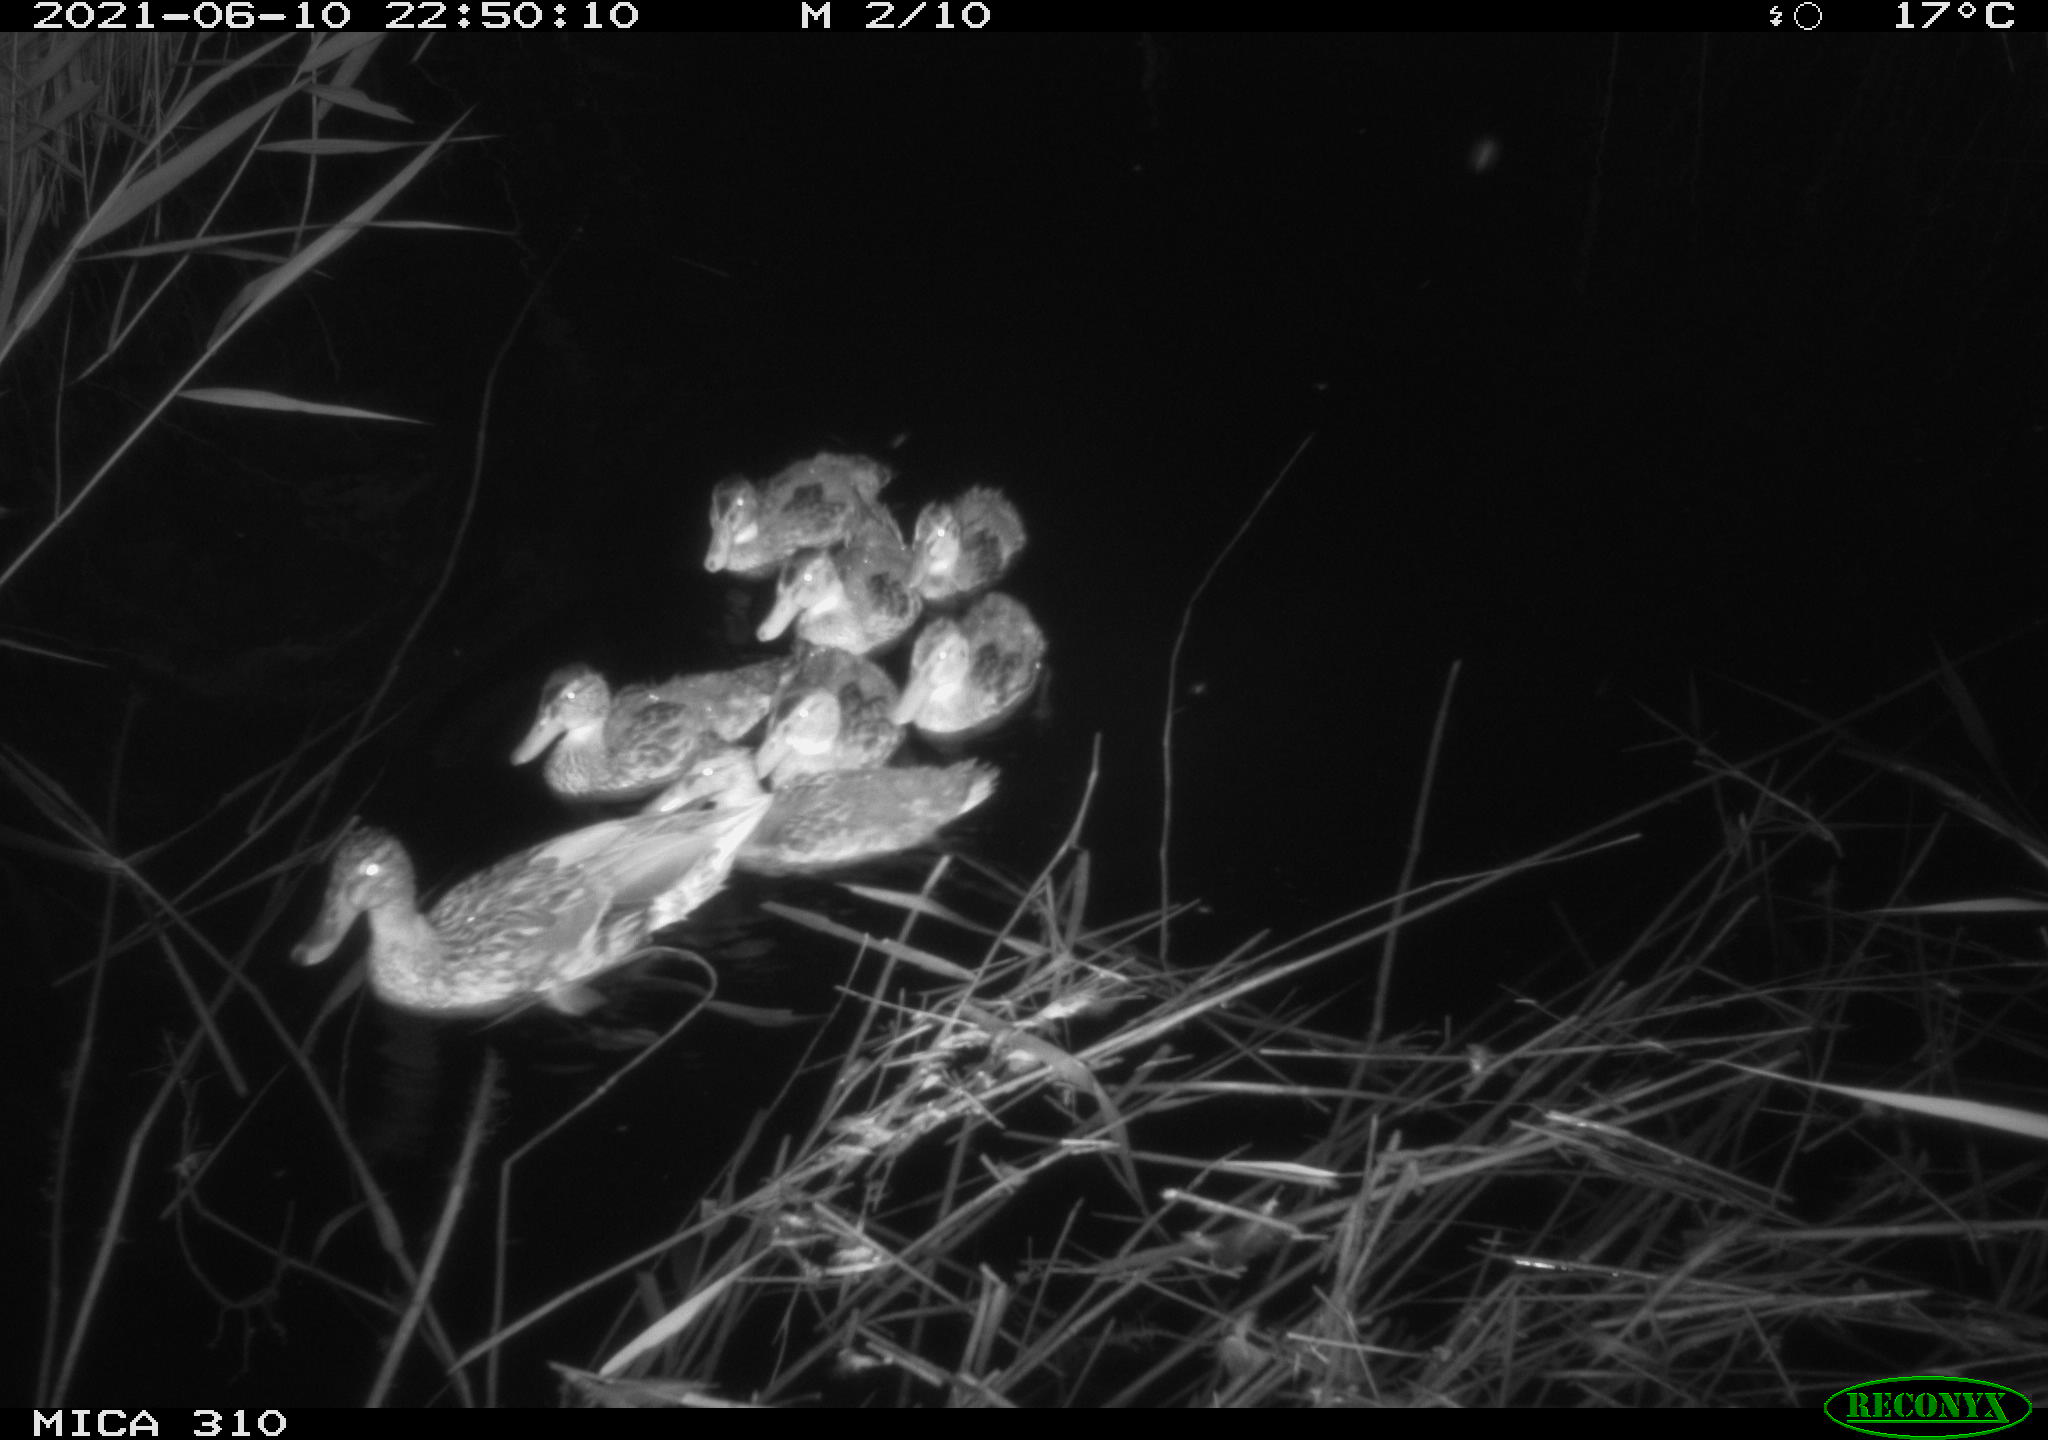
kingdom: Animalia
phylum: Chordata
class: Aves
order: Anseriformes
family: Anatidae
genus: Anas
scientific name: Anas
